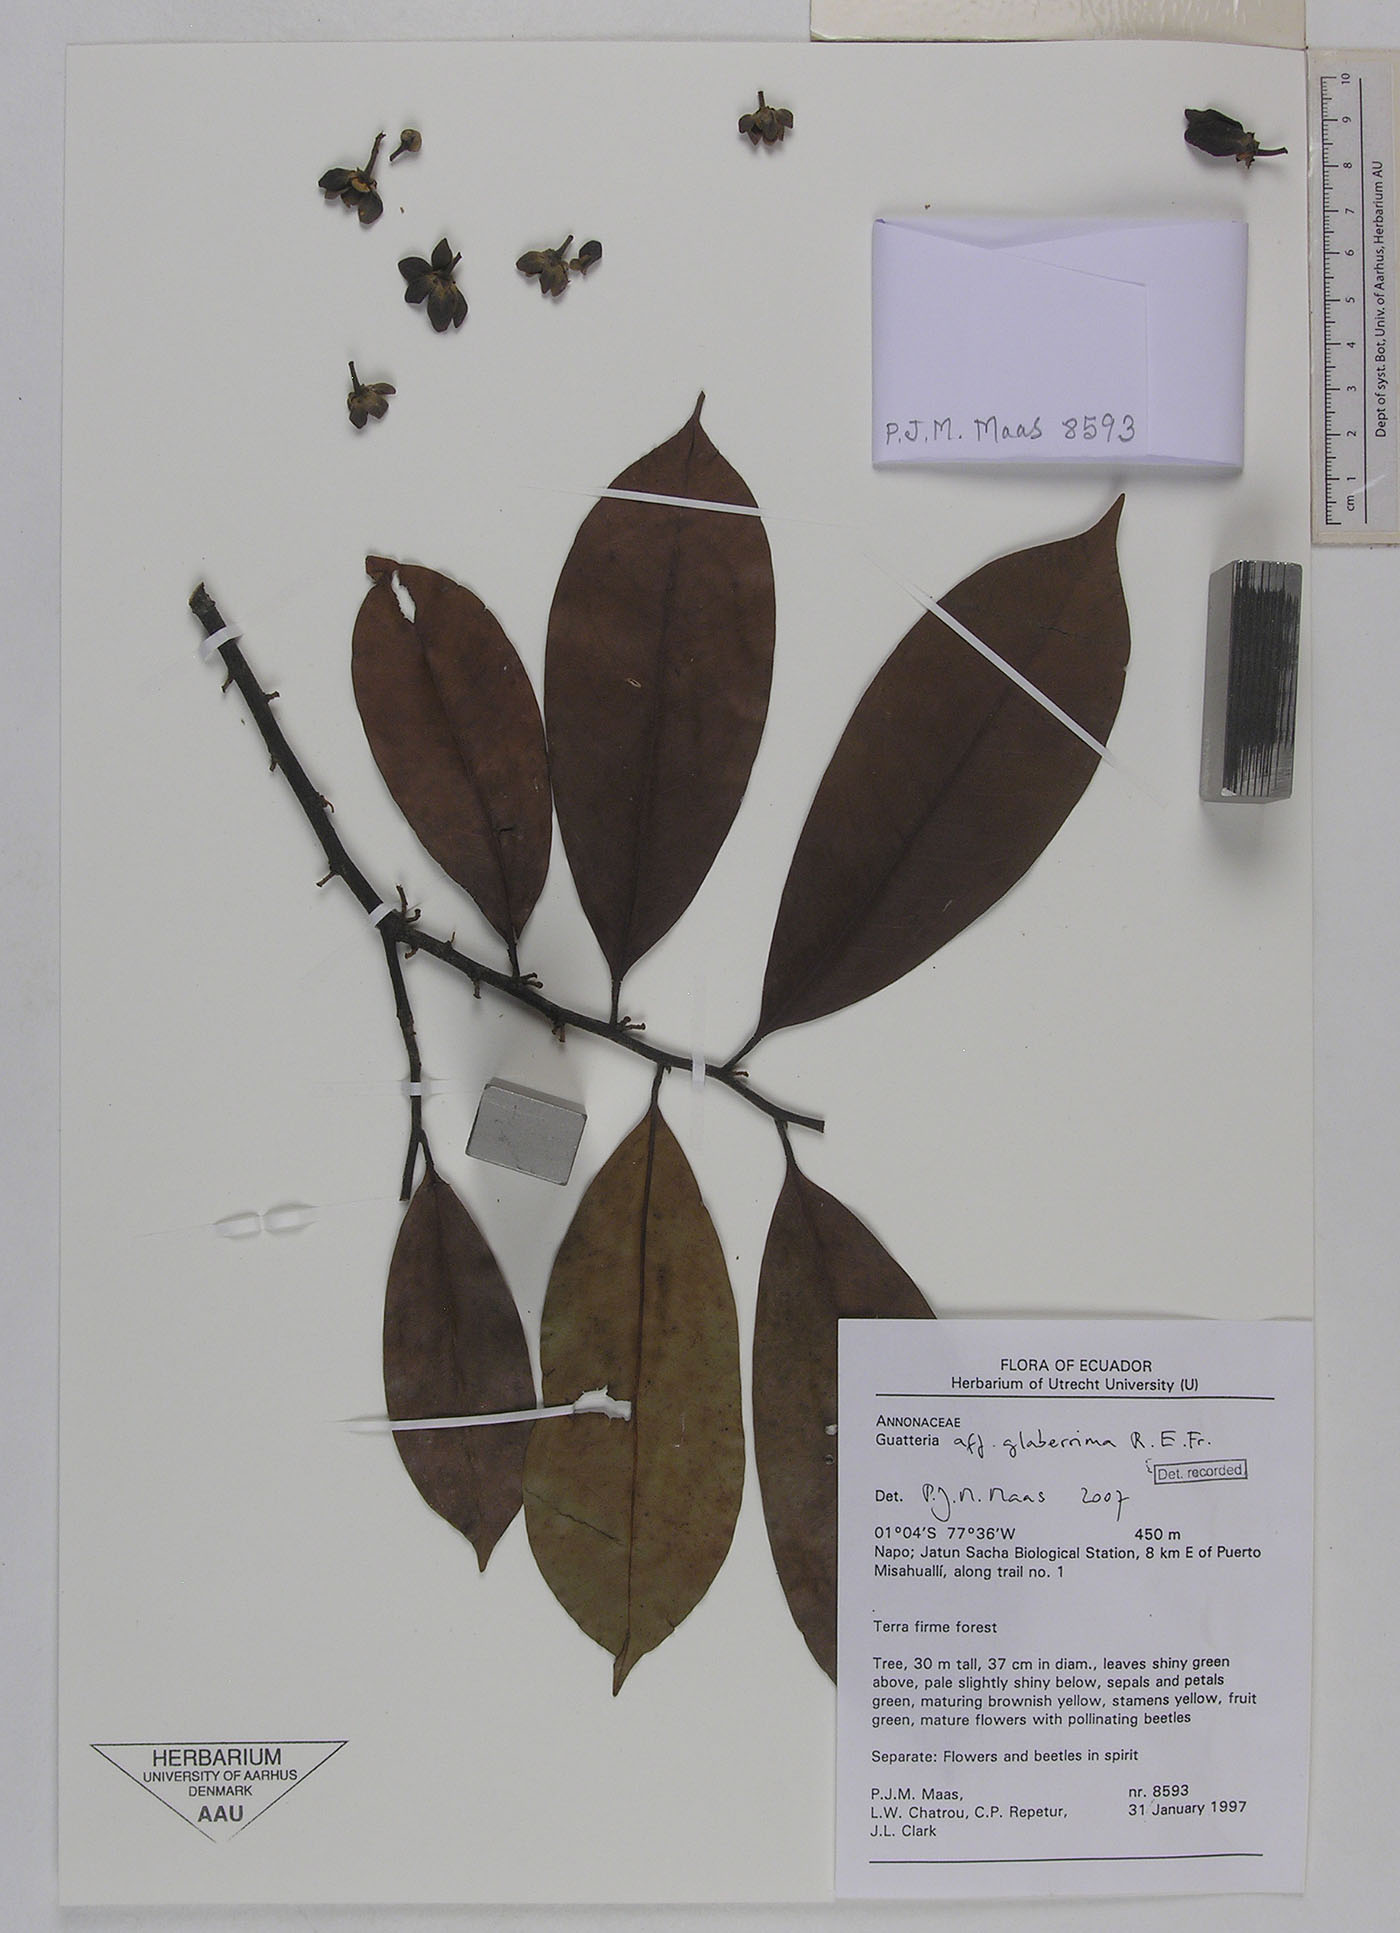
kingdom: Plantae
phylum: Tracheophyta
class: Magnoliopsida
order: Magnoliales
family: Annonaceae
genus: Guatteria
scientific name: Guatteria duodecima
